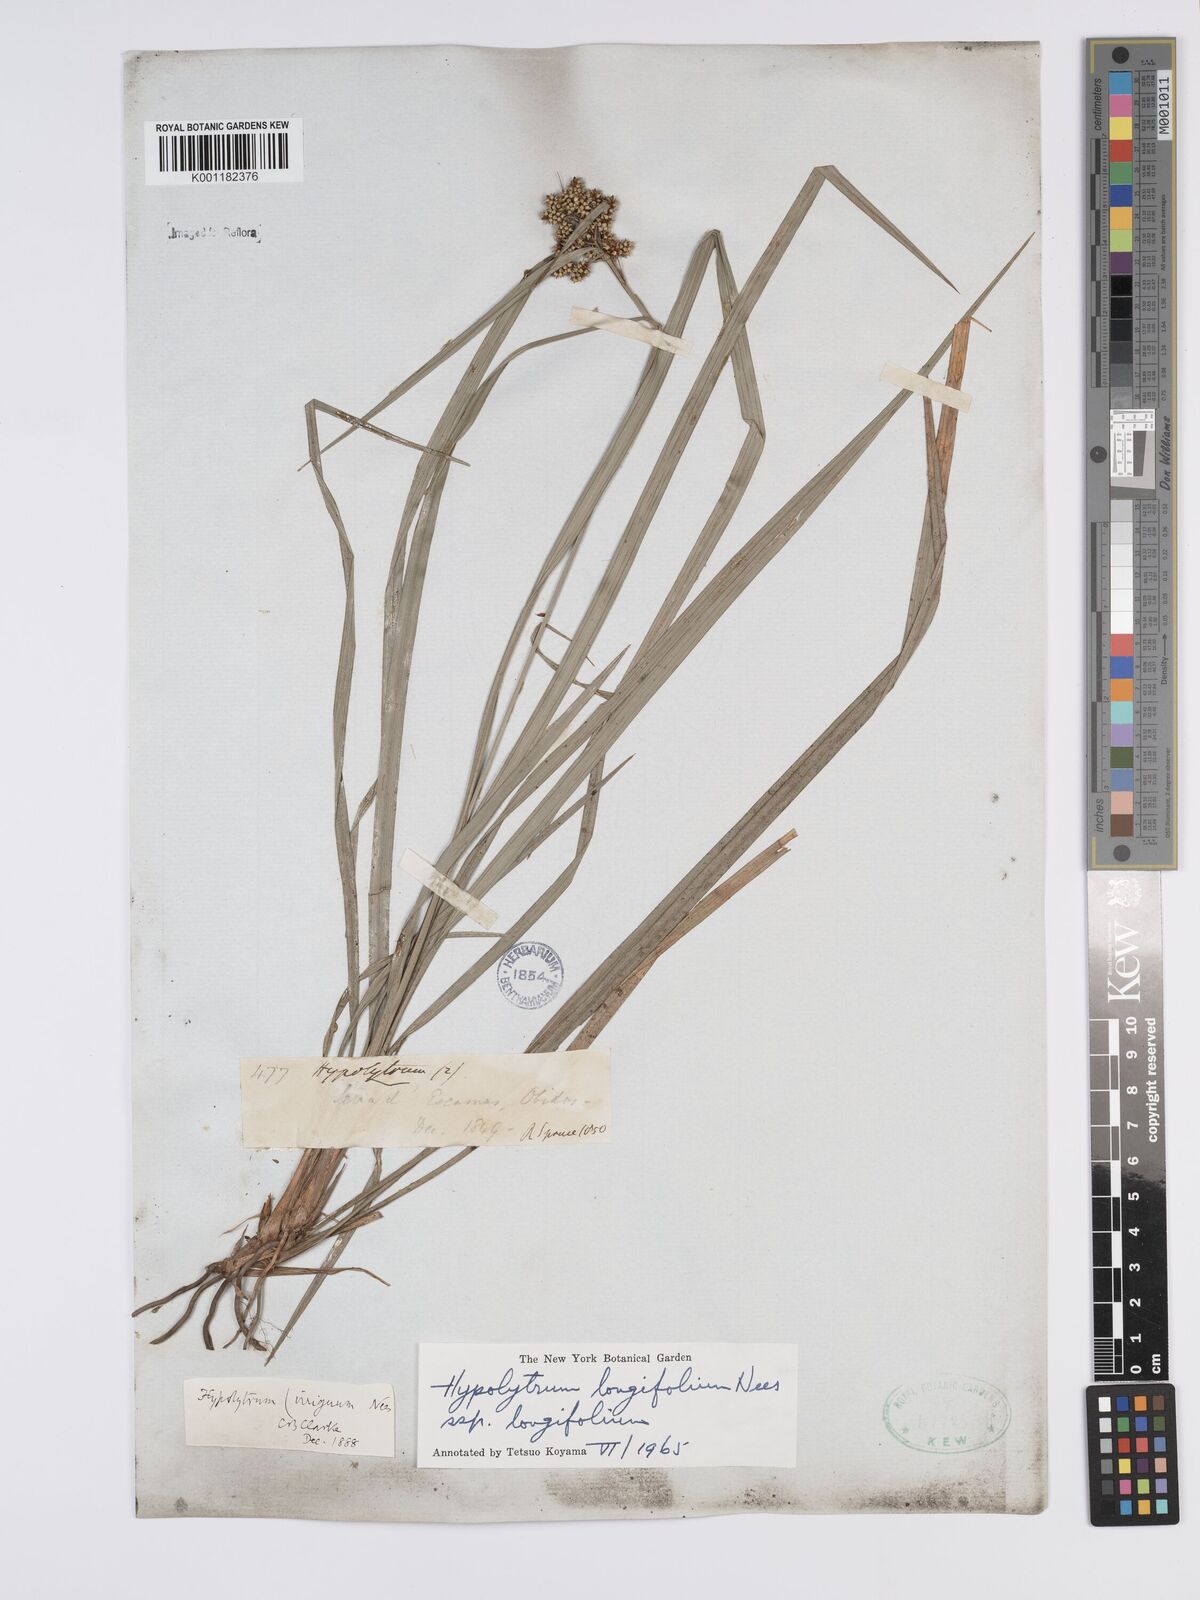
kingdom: Plantae
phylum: Tracheophyta
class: Liliopsida
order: Poales
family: Cyperaceae
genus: Hypolytrum
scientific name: Hypolytrum longifolium
